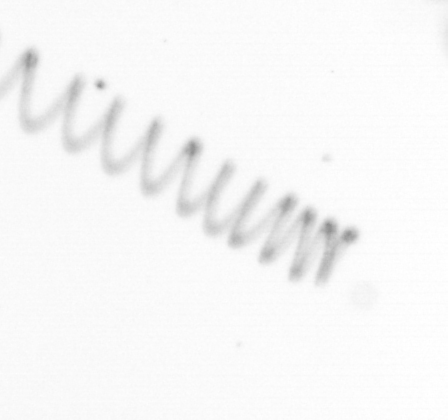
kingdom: Chromista
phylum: Ochrophyta
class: Bacillariophyceae
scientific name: Bacillariophyceae
